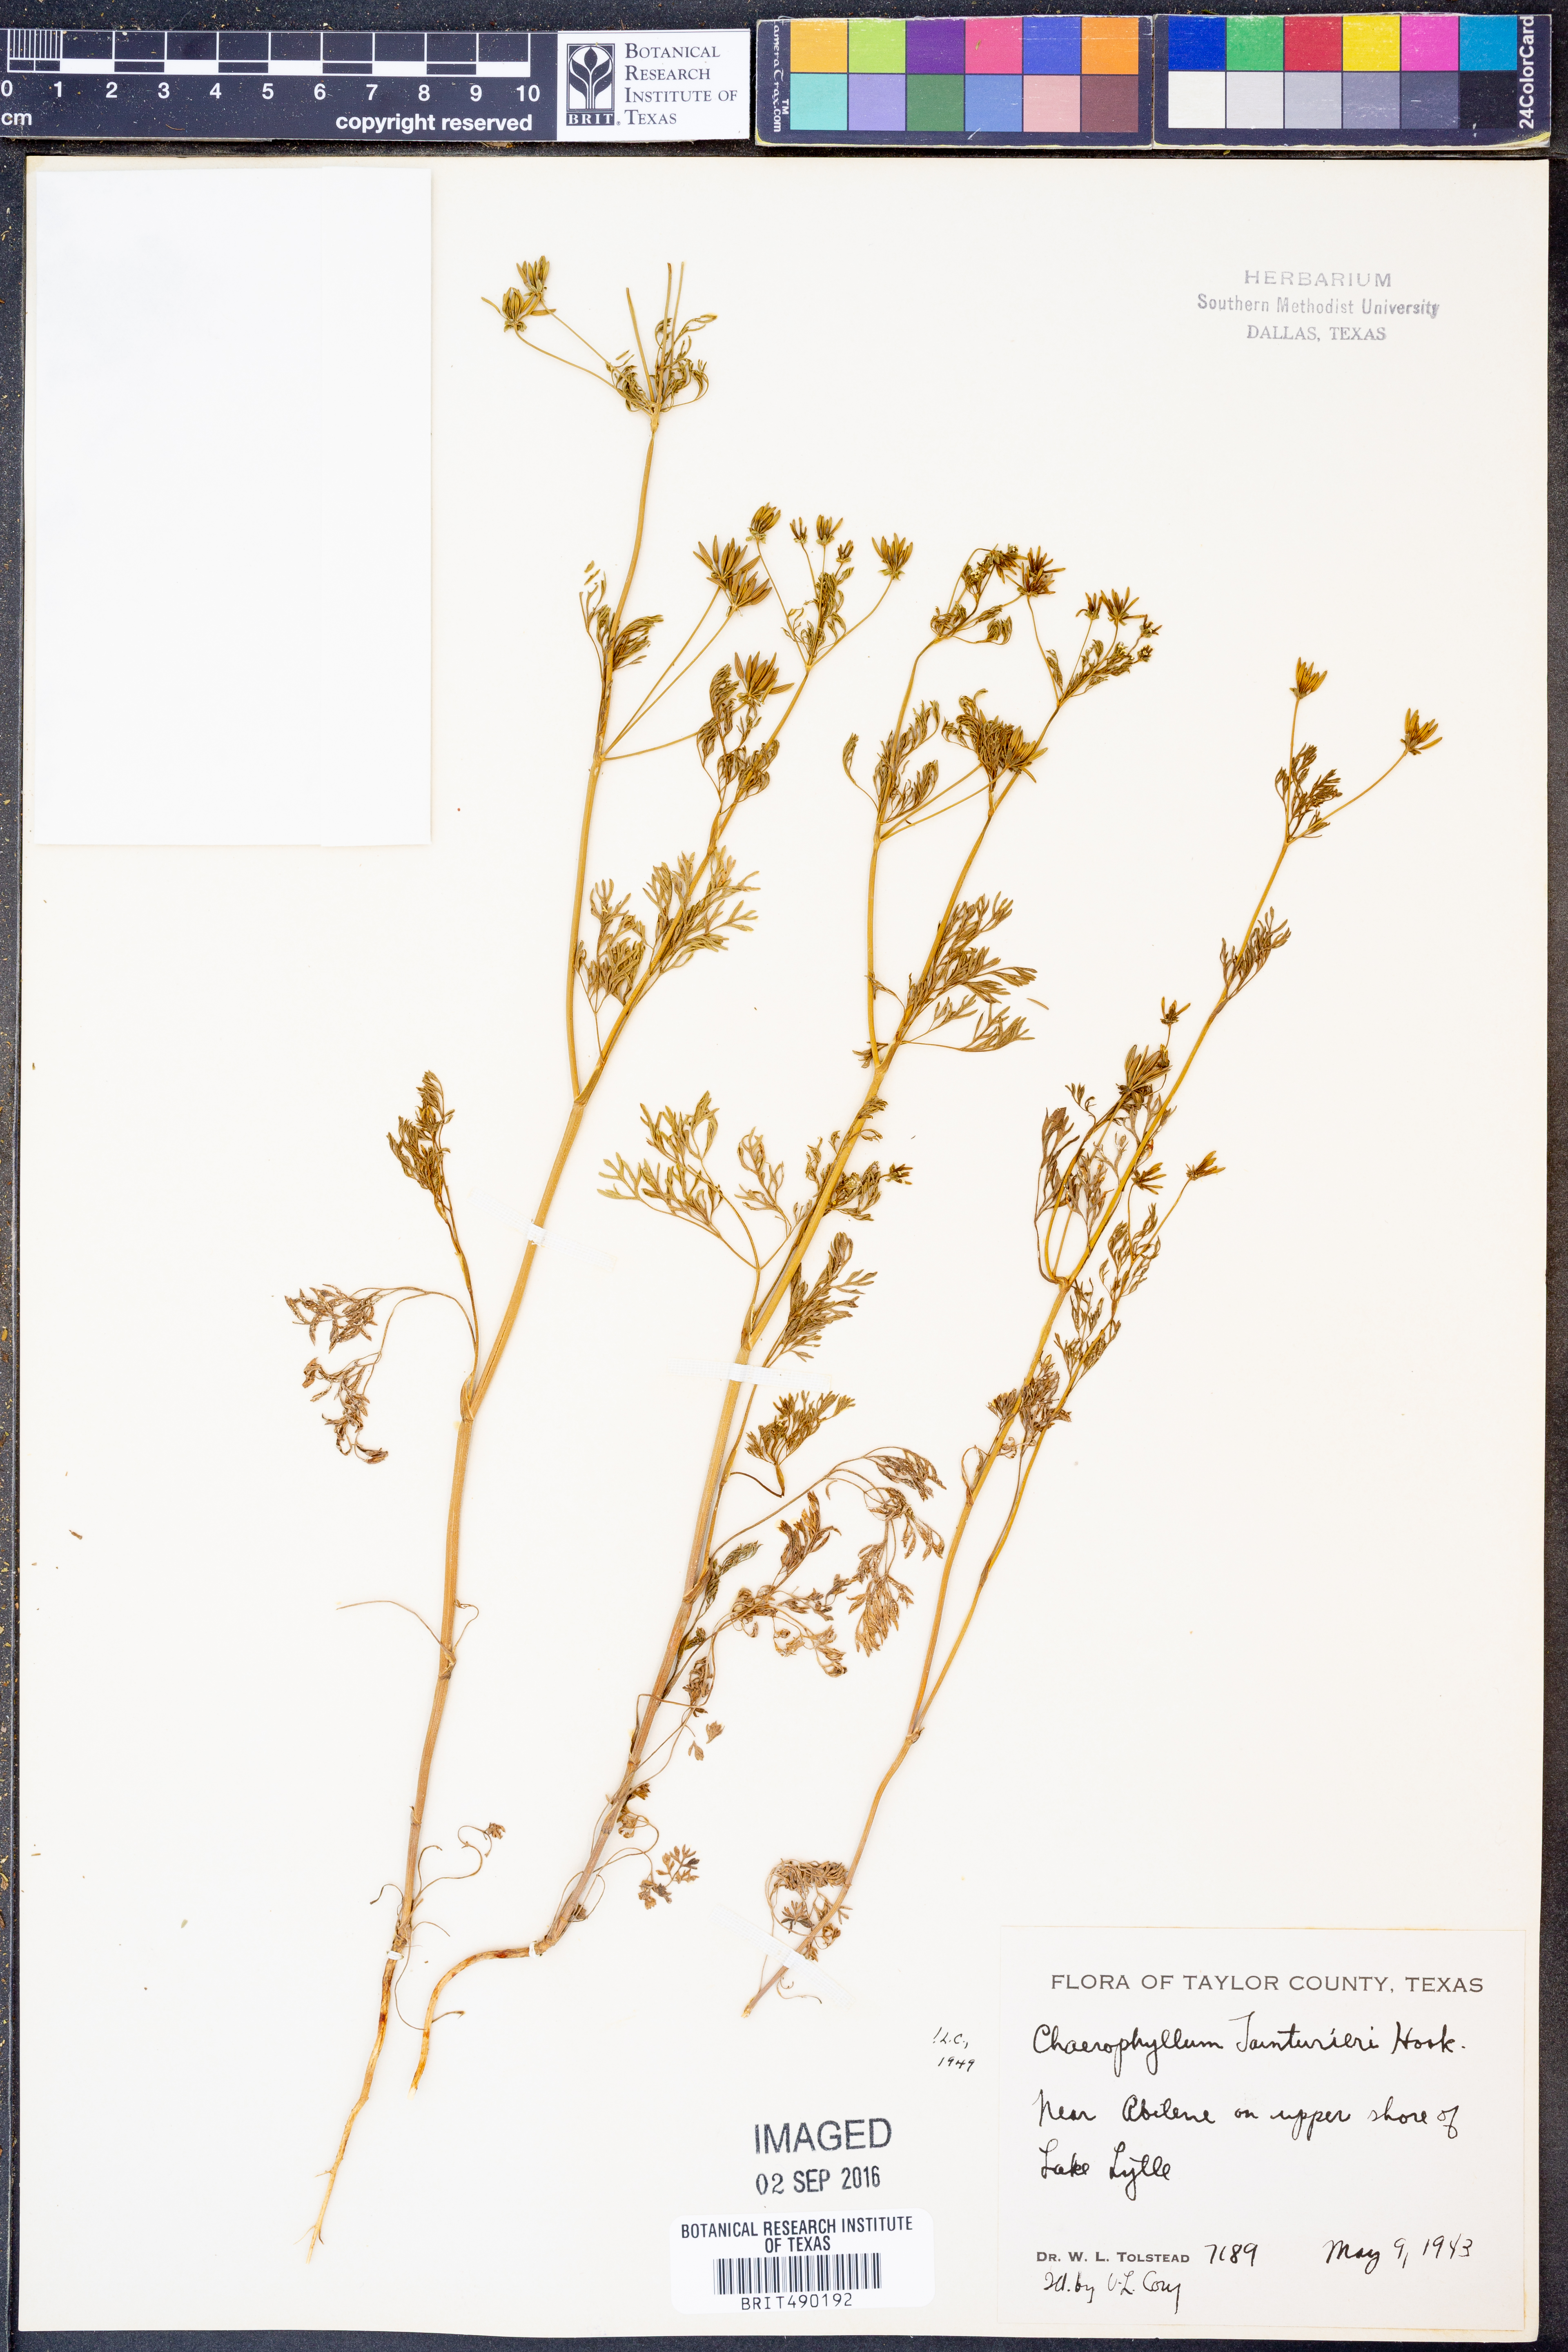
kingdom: Plantae
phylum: Tracheophyta
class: Magnoliopsida
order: Apiales
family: Apiaceae
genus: Chaerophyllum
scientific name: Chaerophyllum tainturieri
